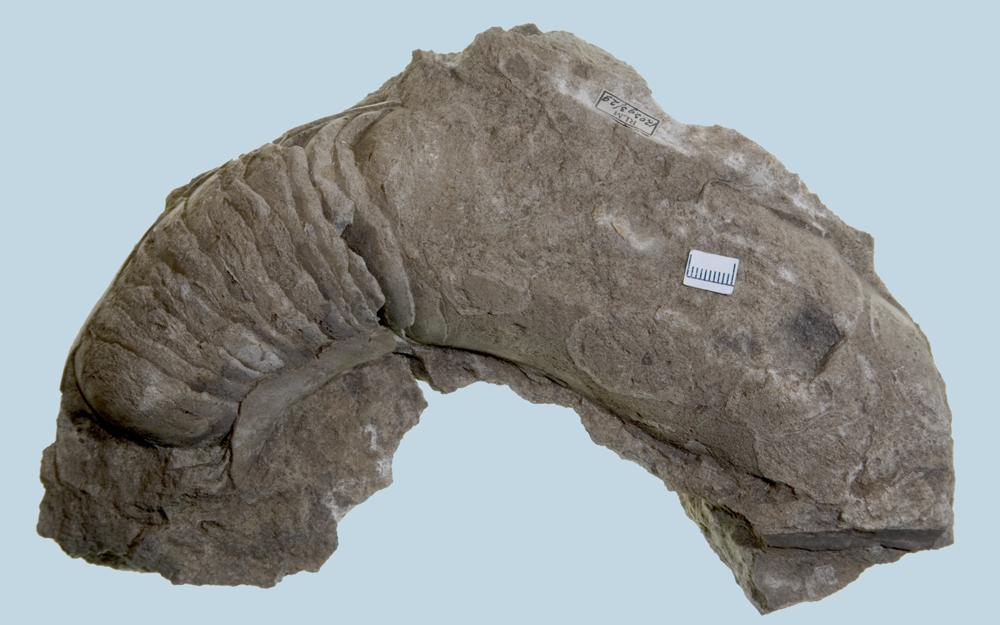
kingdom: Animalia
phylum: Mollusca
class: Cephalopoda
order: Nautilida
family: Nautilidae
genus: Cyrtoceras
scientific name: Cyrtoceras
